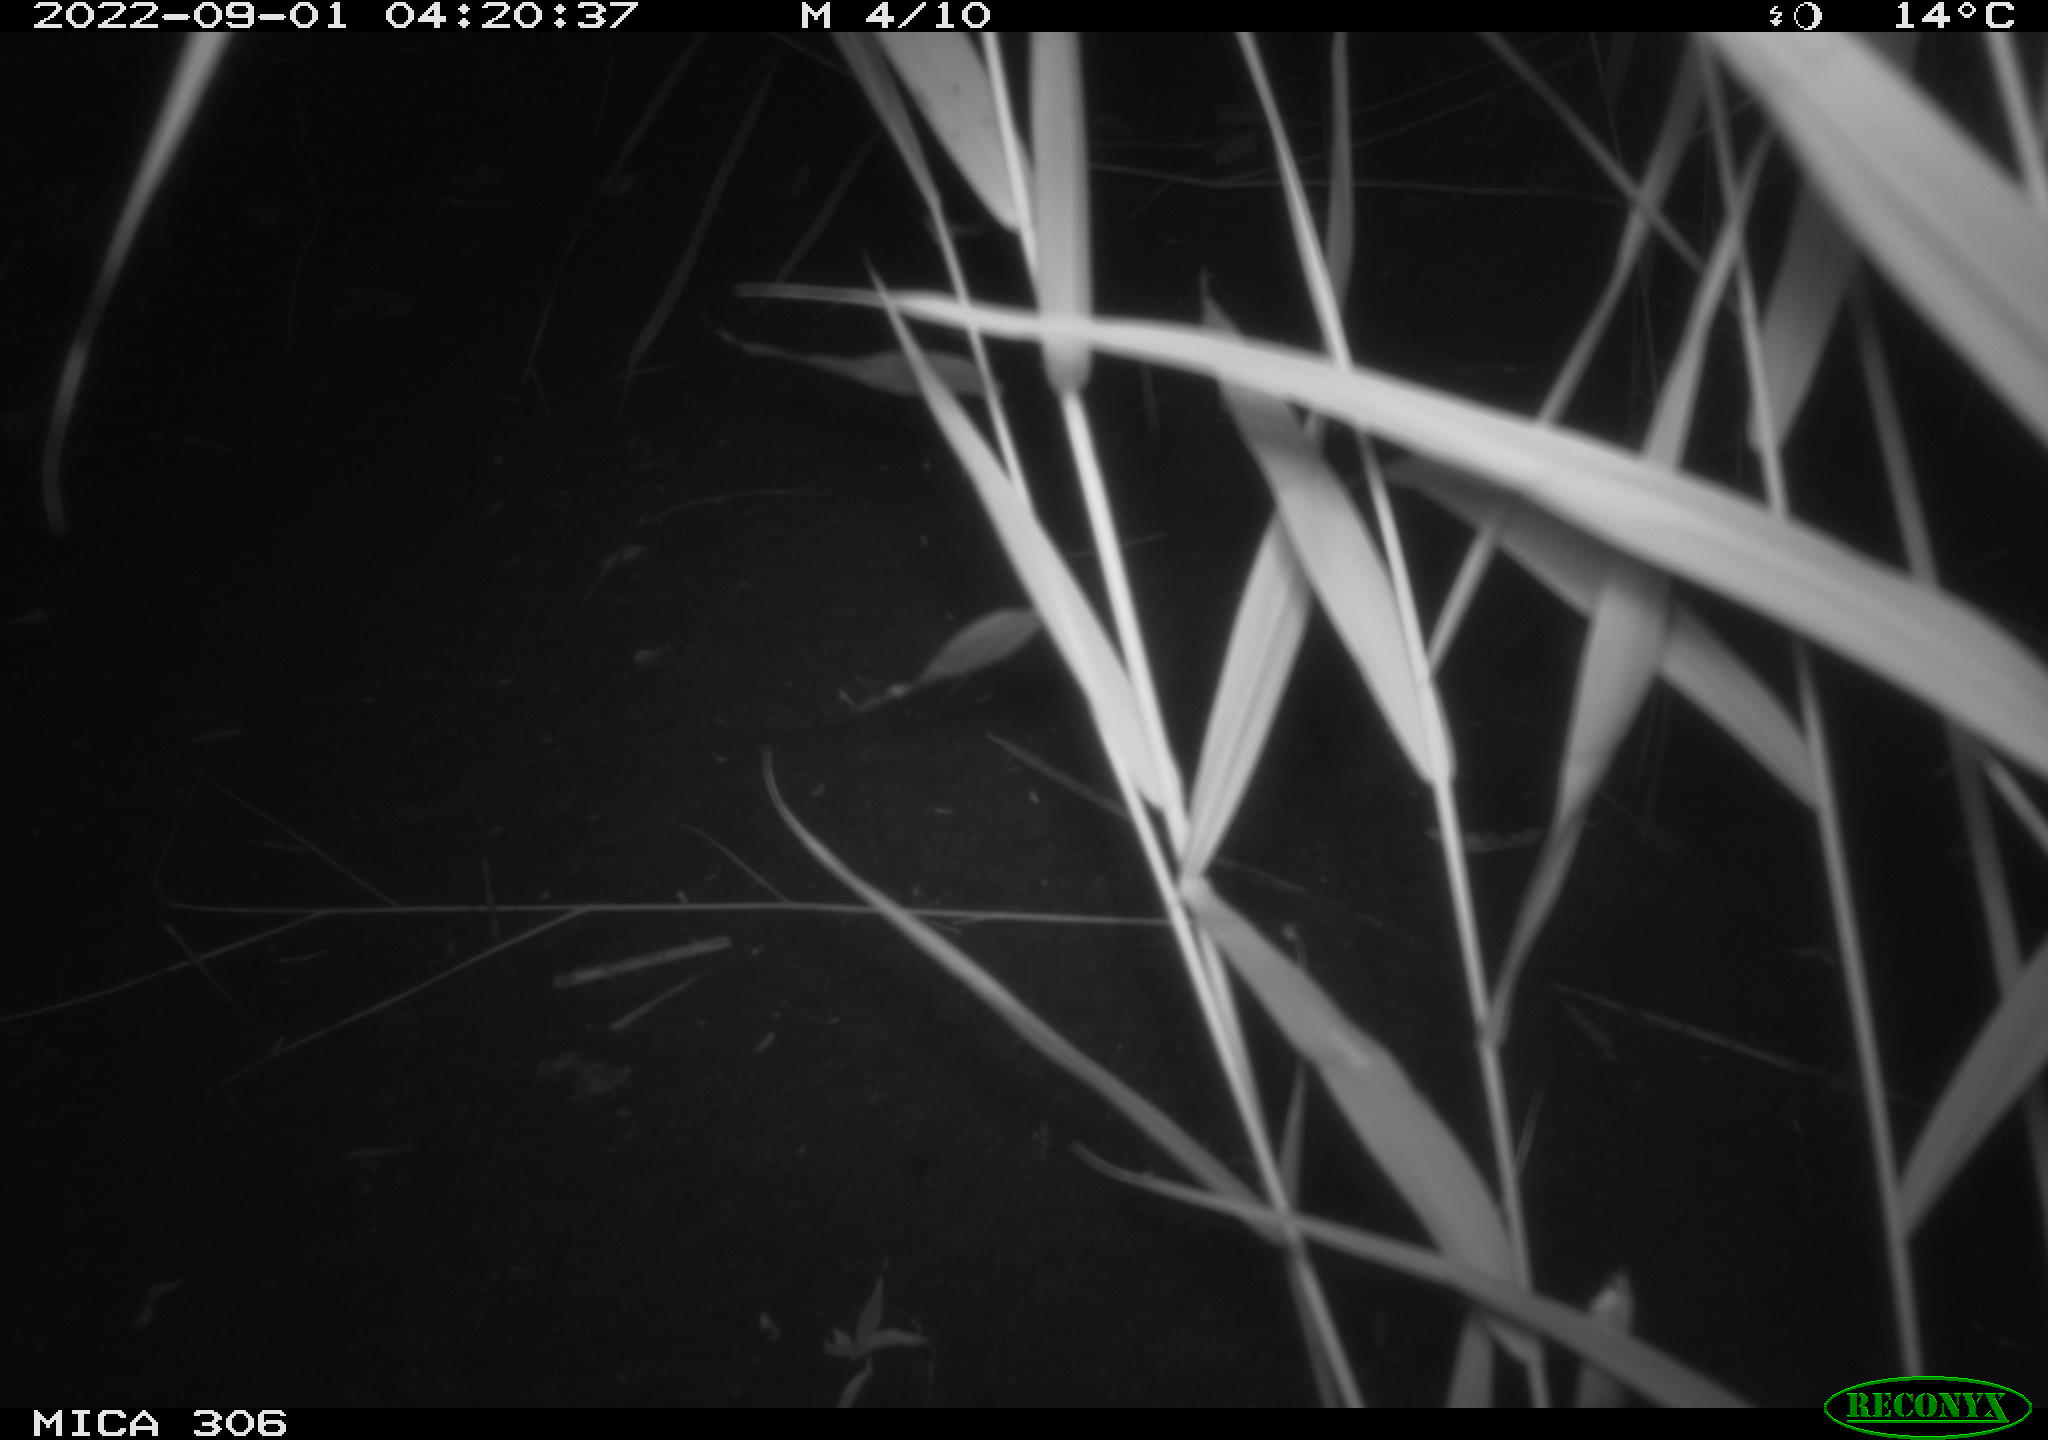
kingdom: Animalia
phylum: Chordata
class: Mammalia
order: Rodentia
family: Muridae
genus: Rattus
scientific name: Rattus norvegicus
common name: Brown rat
